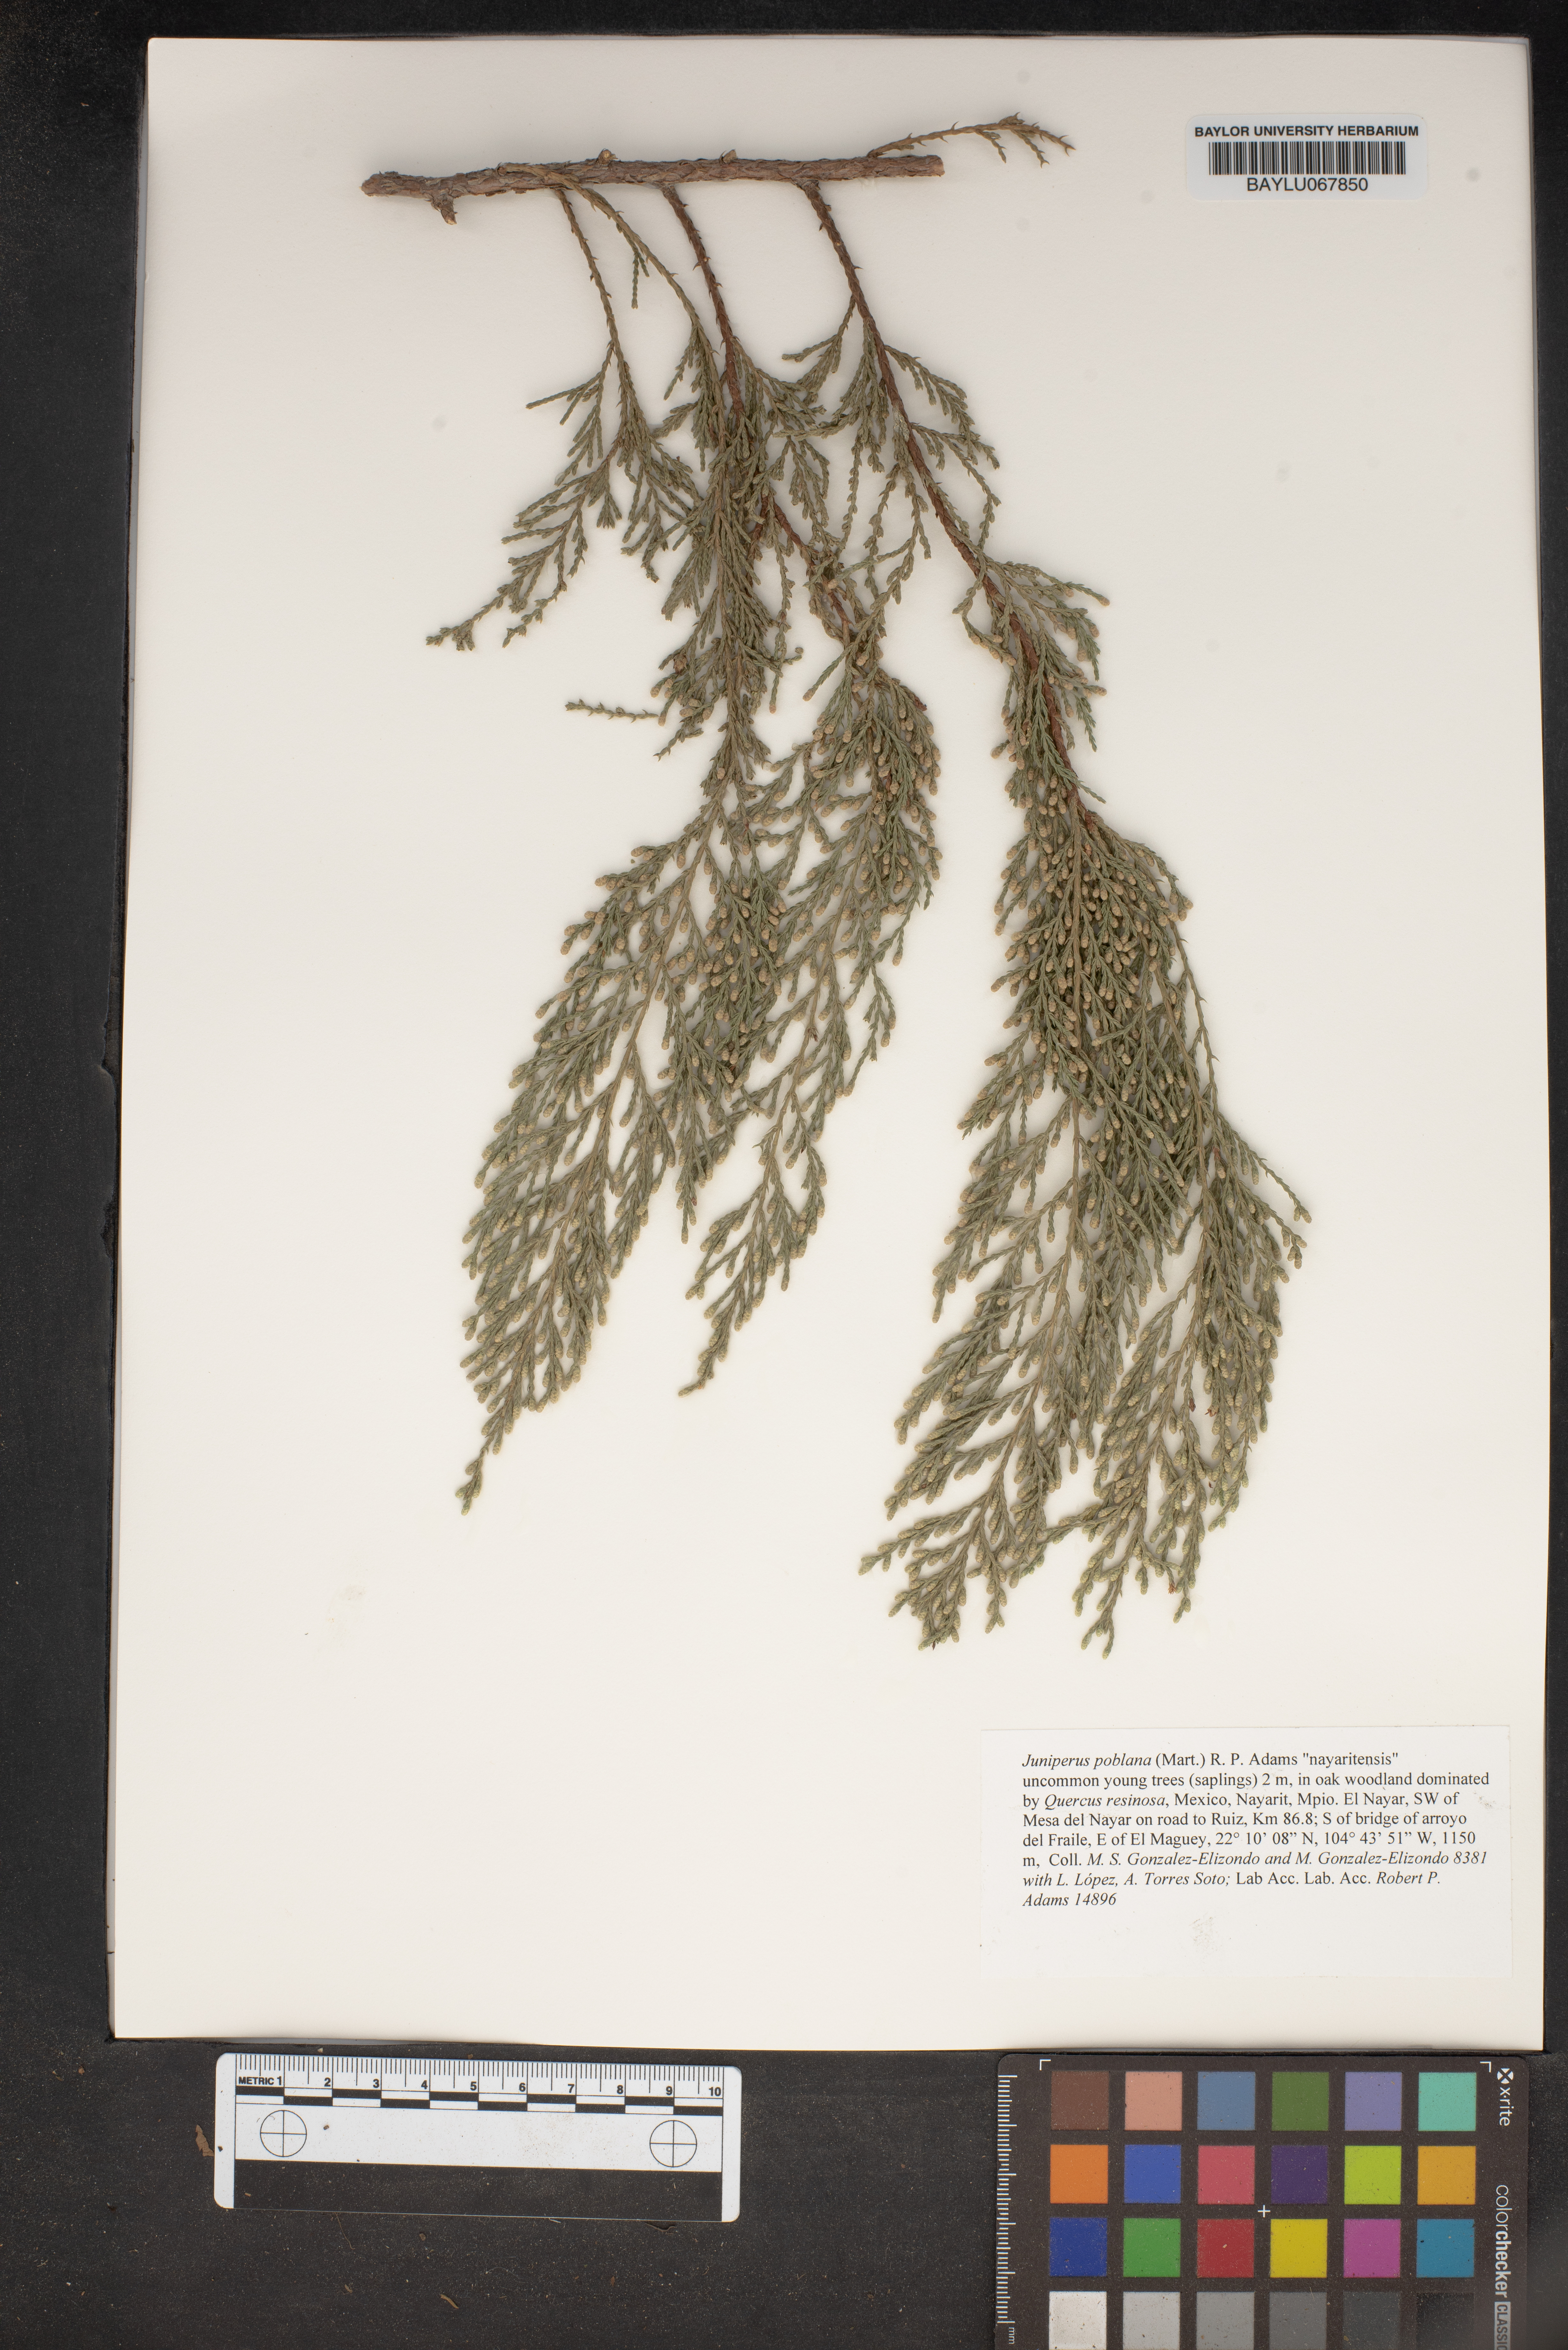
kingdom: Plantae
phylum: Tracheophyta
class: Pinopsida
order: Pinales
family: Cupressaceae
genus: Juniperus
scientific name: Juniperus flaccida
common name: Drooping juniper
